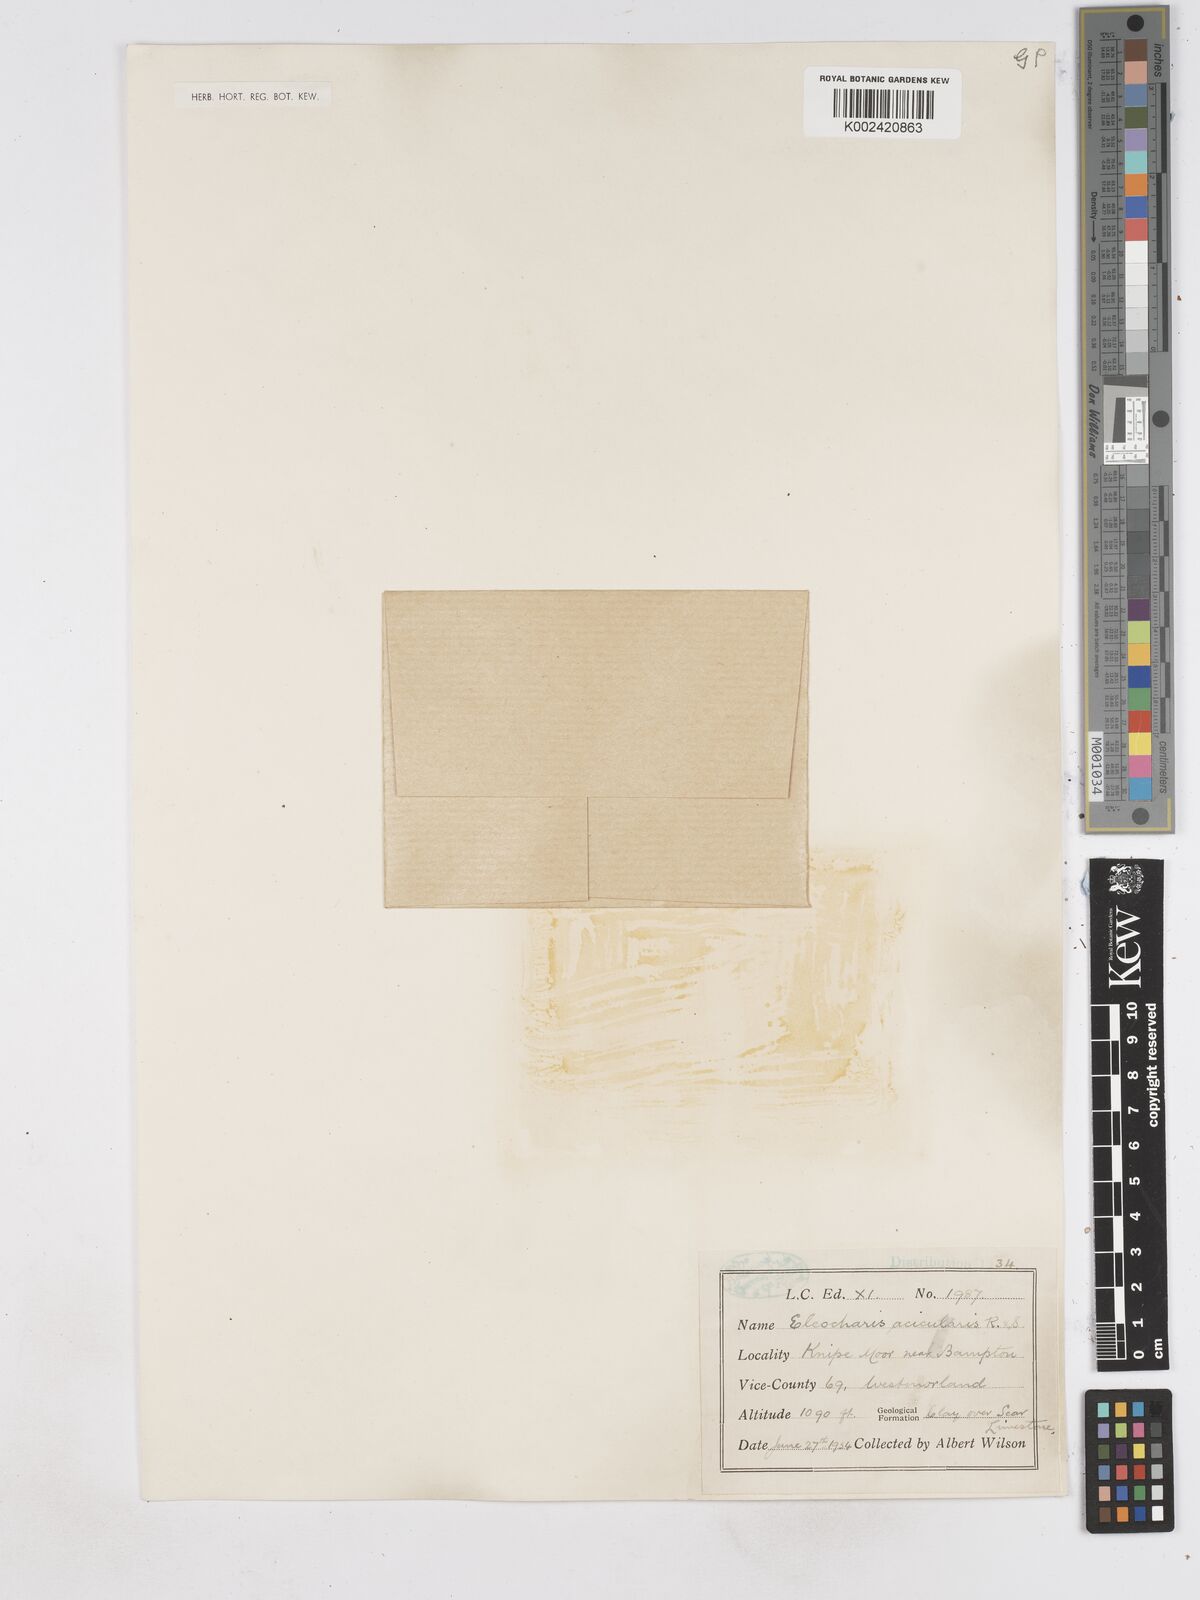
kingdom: Plantae
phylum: Tracheophyta
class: Liliopsida
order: Poales
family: Cyperaceae
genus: Eleocharis
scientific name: Eleocharis acicularis
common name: Needle spike-rush
